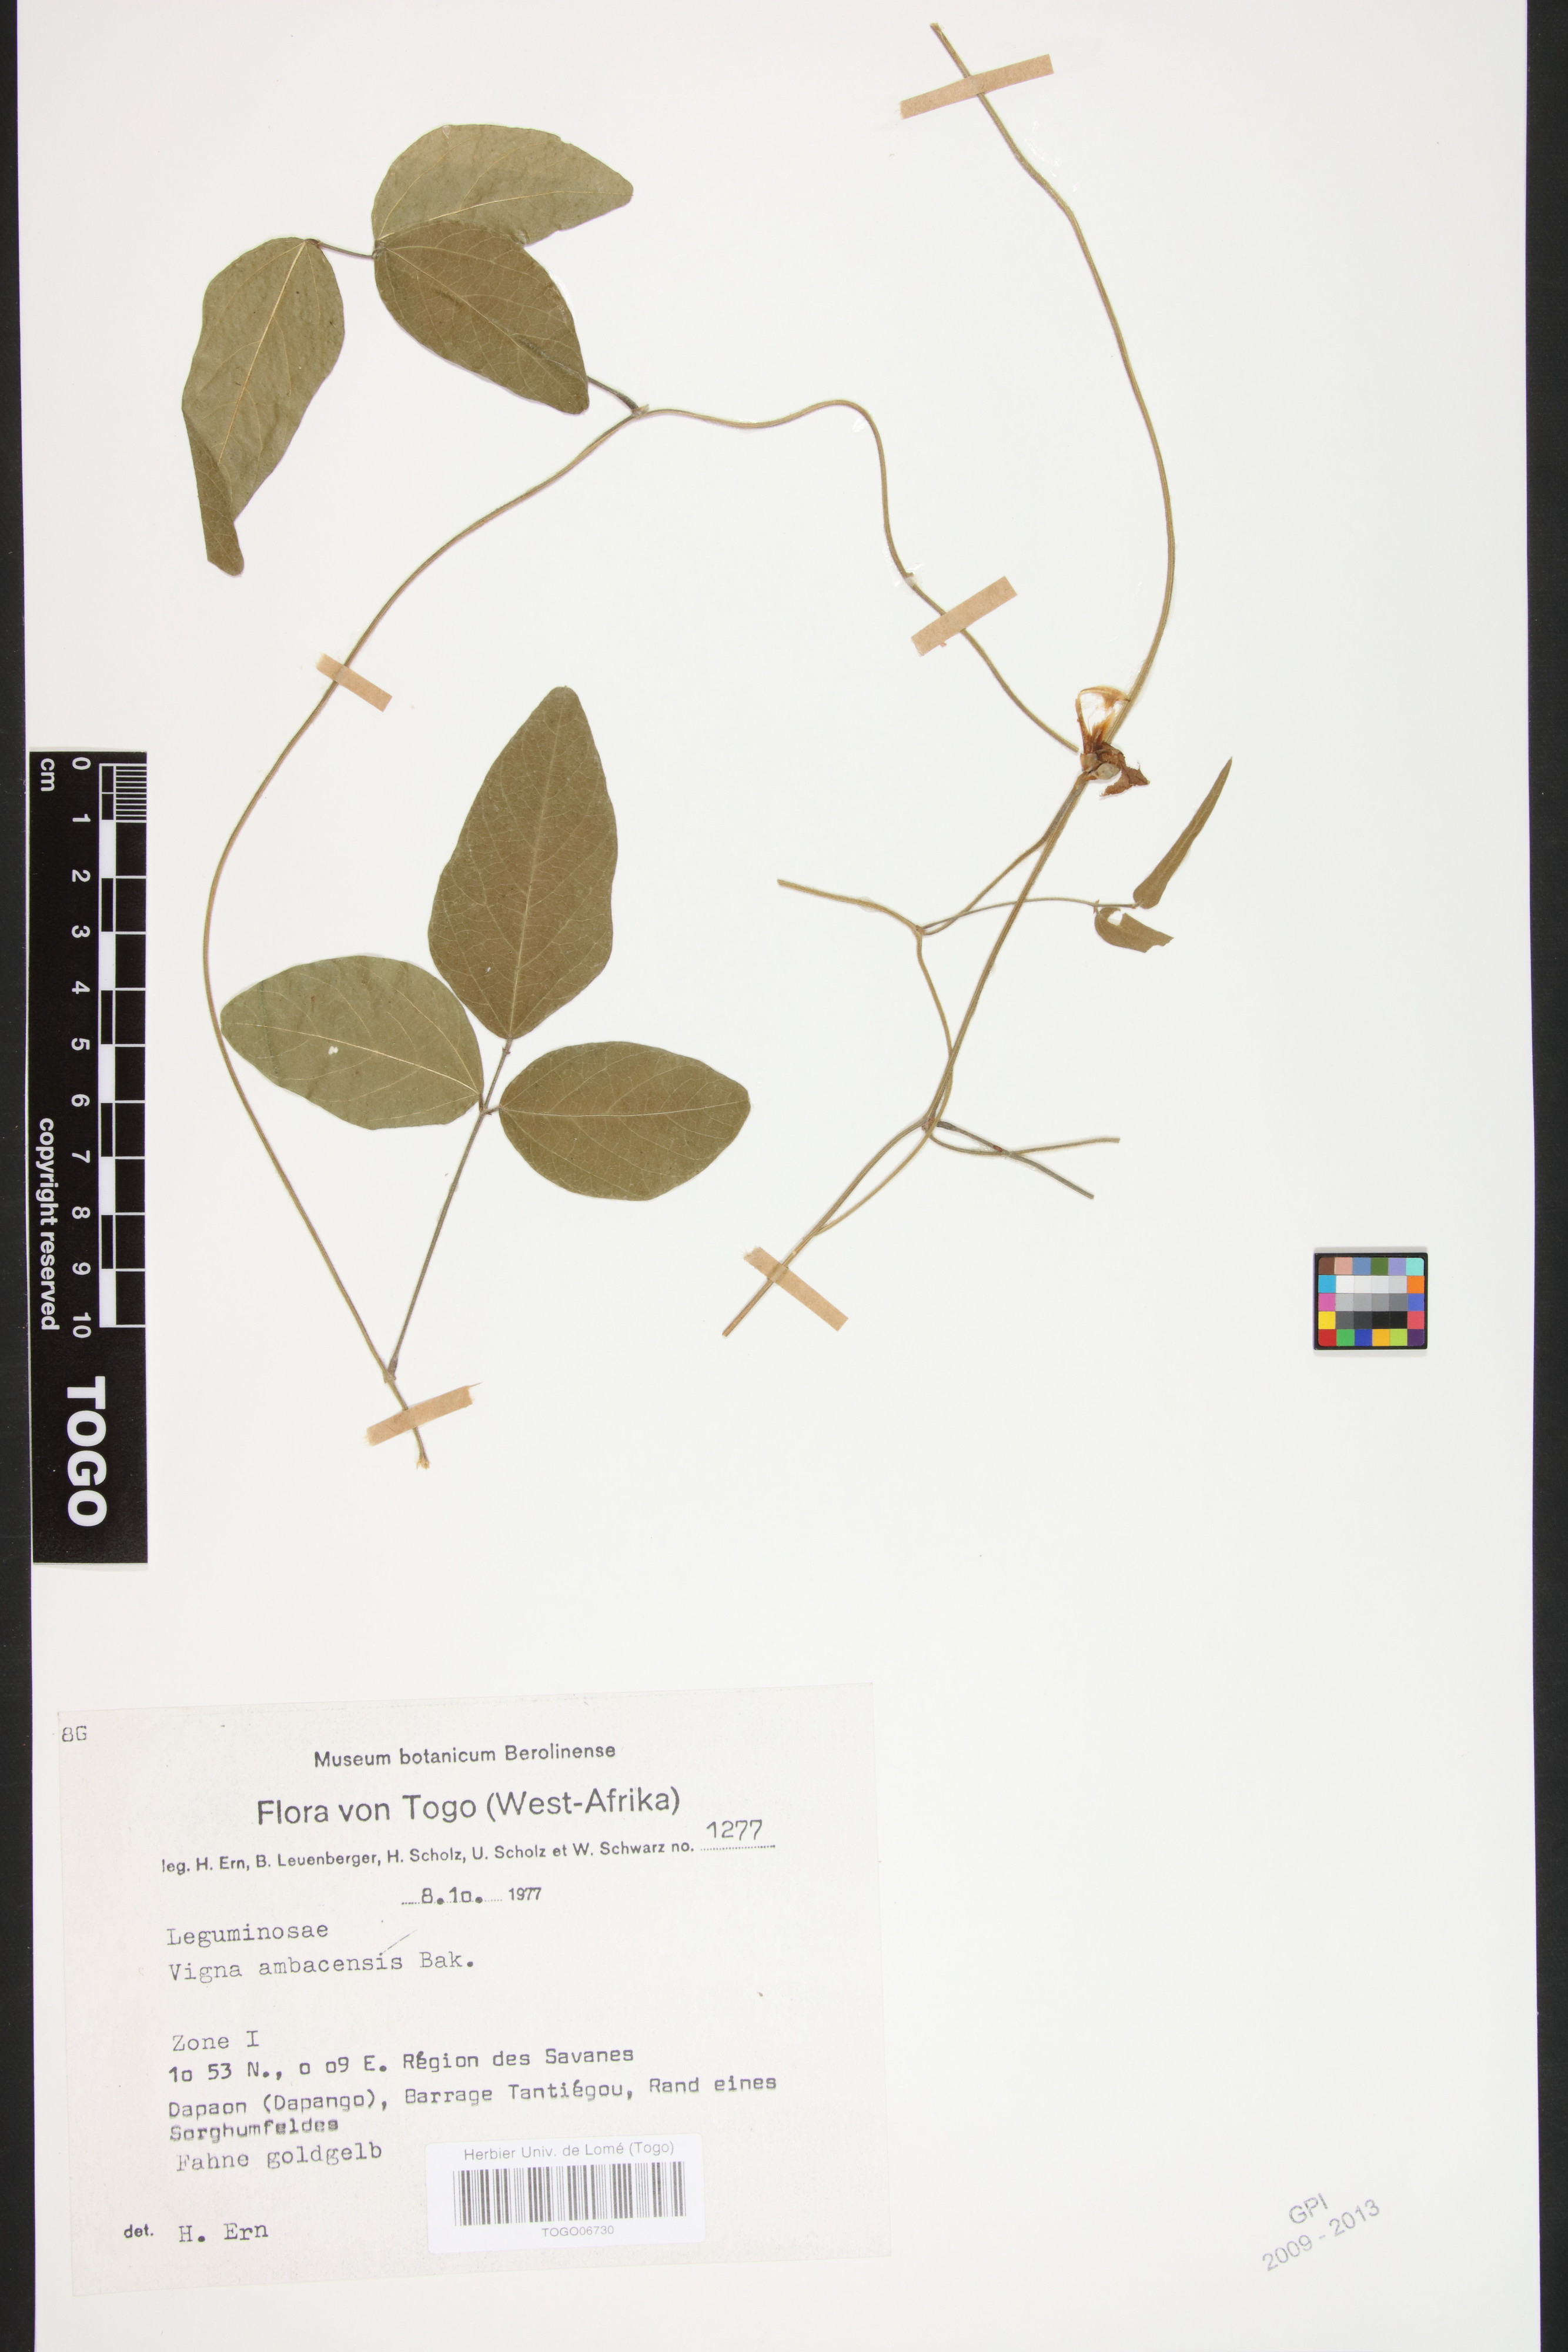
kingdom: Plantae
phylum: Tracheophyta
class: Magnoliopsida
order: Fabales
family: Fabaceae
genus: Vigna
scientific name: Vigna ambacensis
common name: Tsarkiyan zomo
